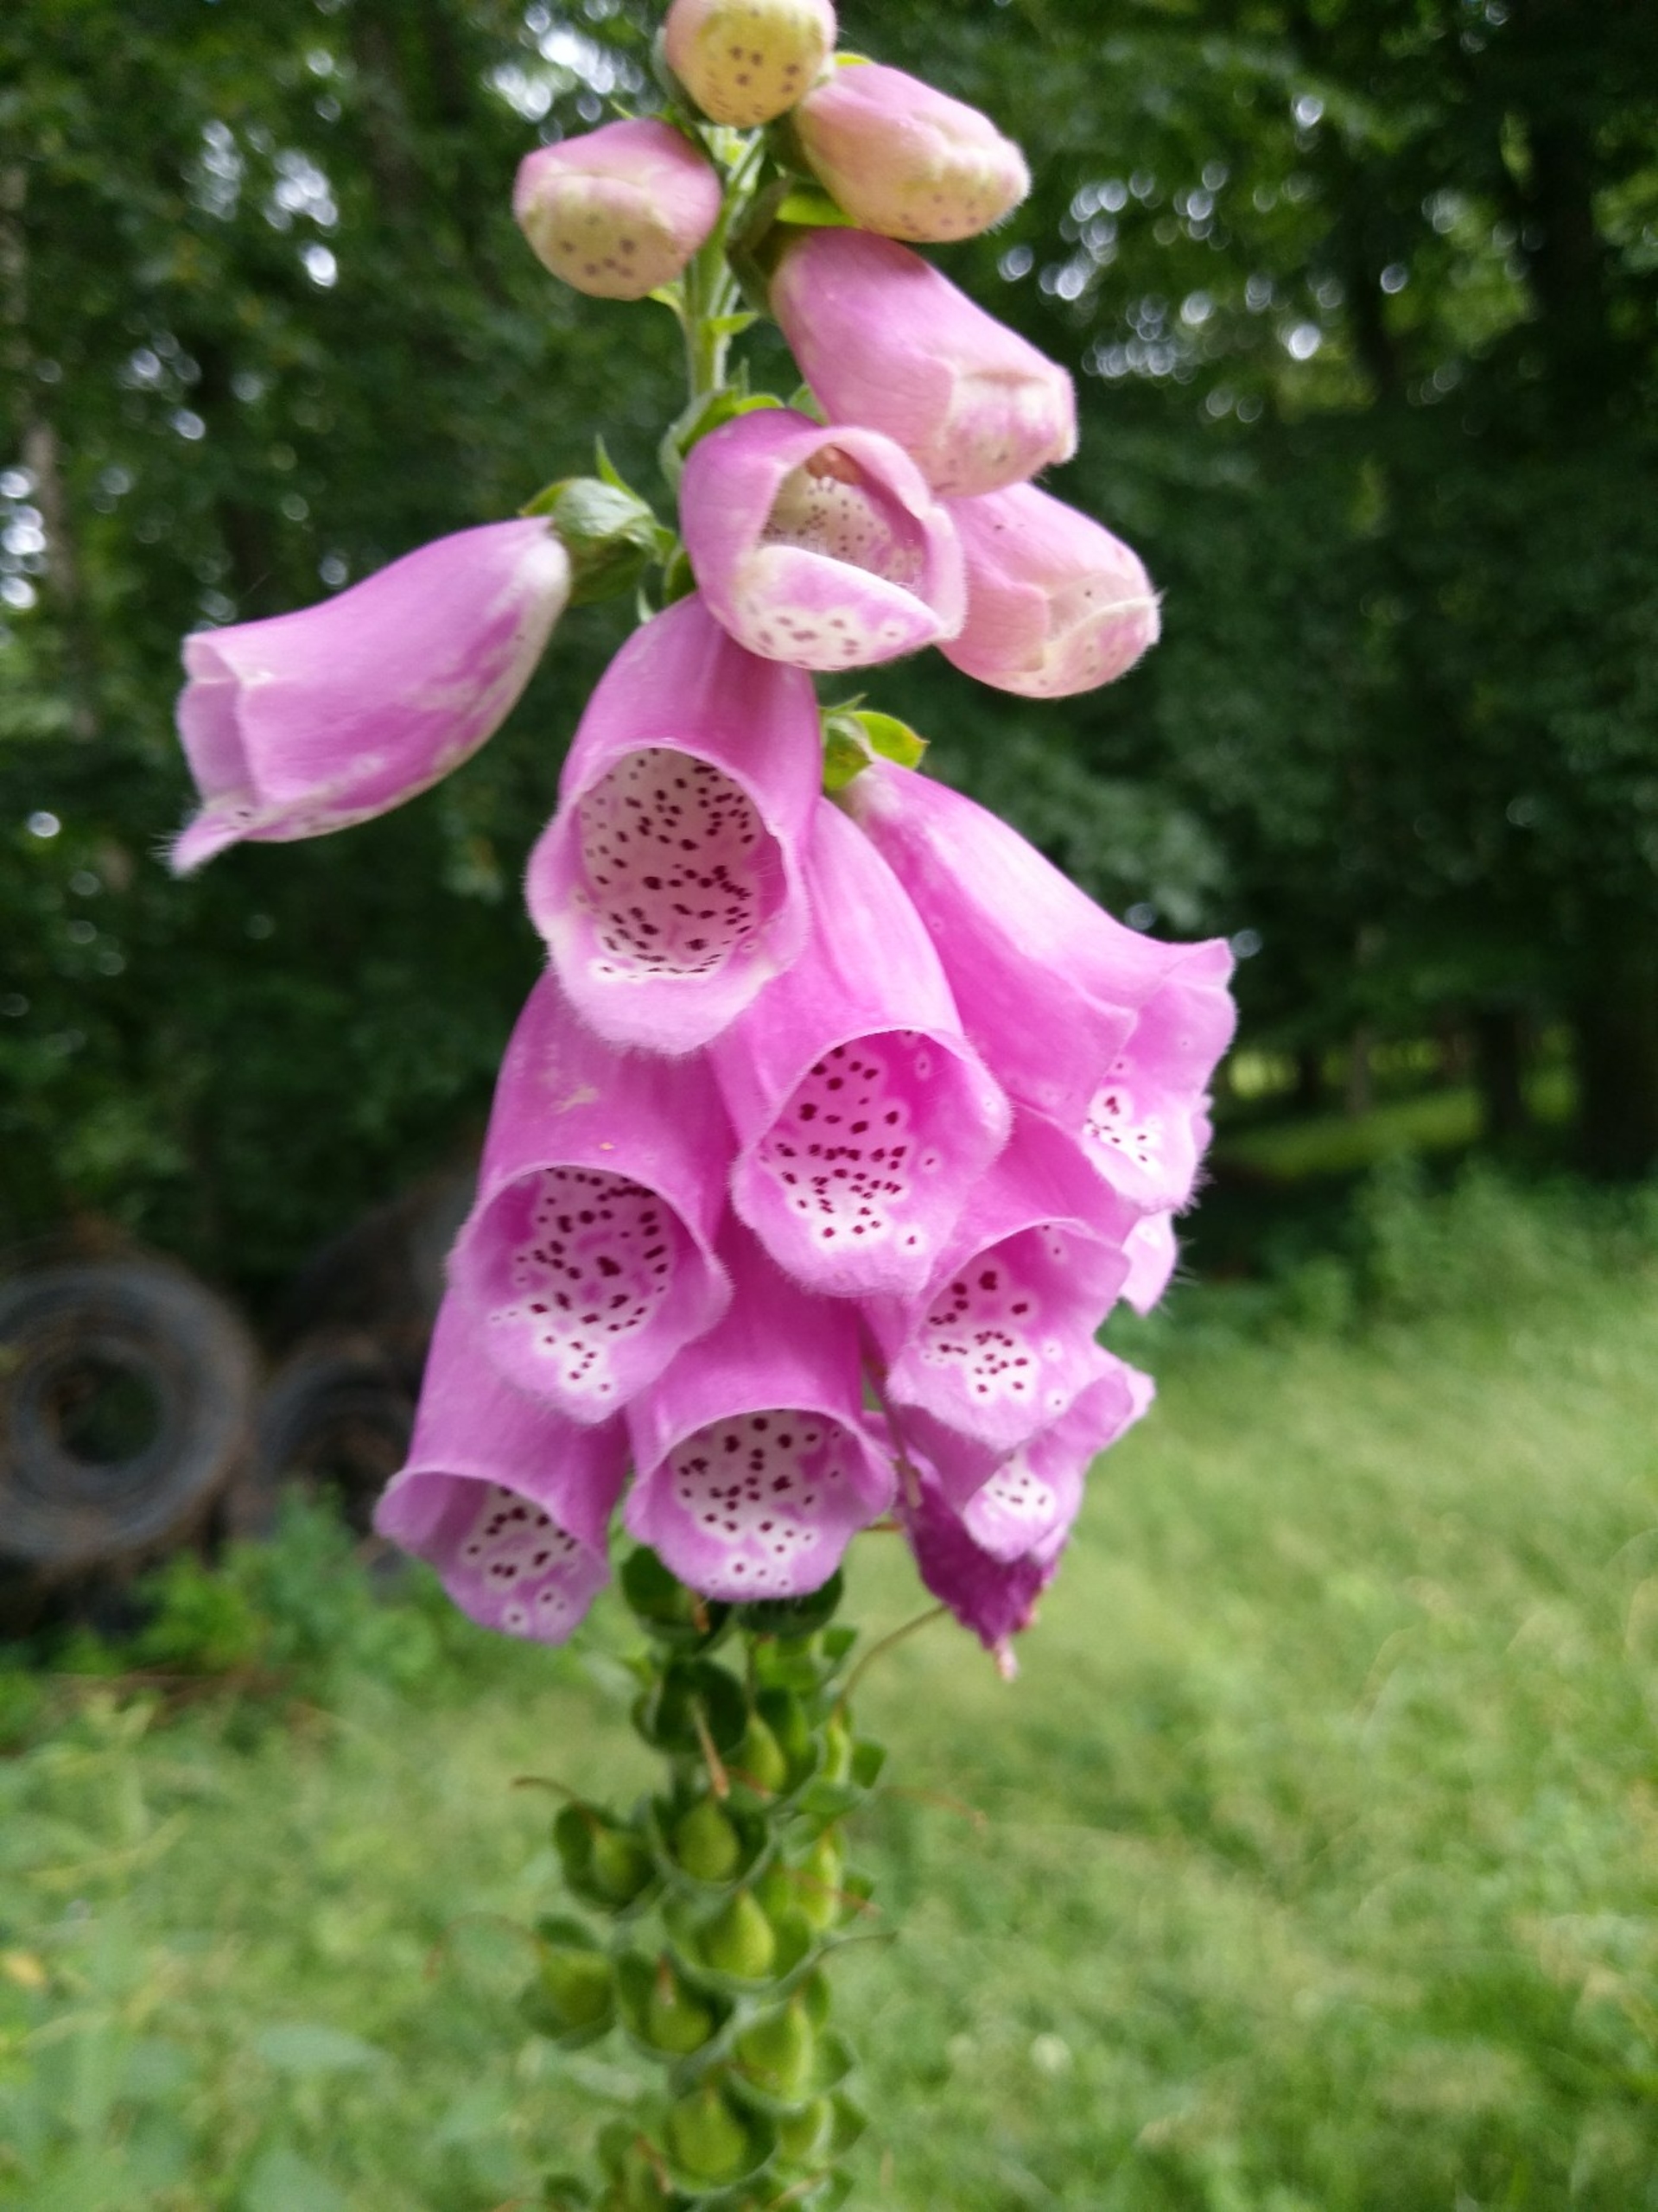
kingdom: Plantae
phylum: Tracheophyta
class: Magnoliopsida
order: Lamiales
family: Plantaginaceae
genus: Digitalis
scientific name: Digitalis purpurea
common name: Almindelig fingerbøl
